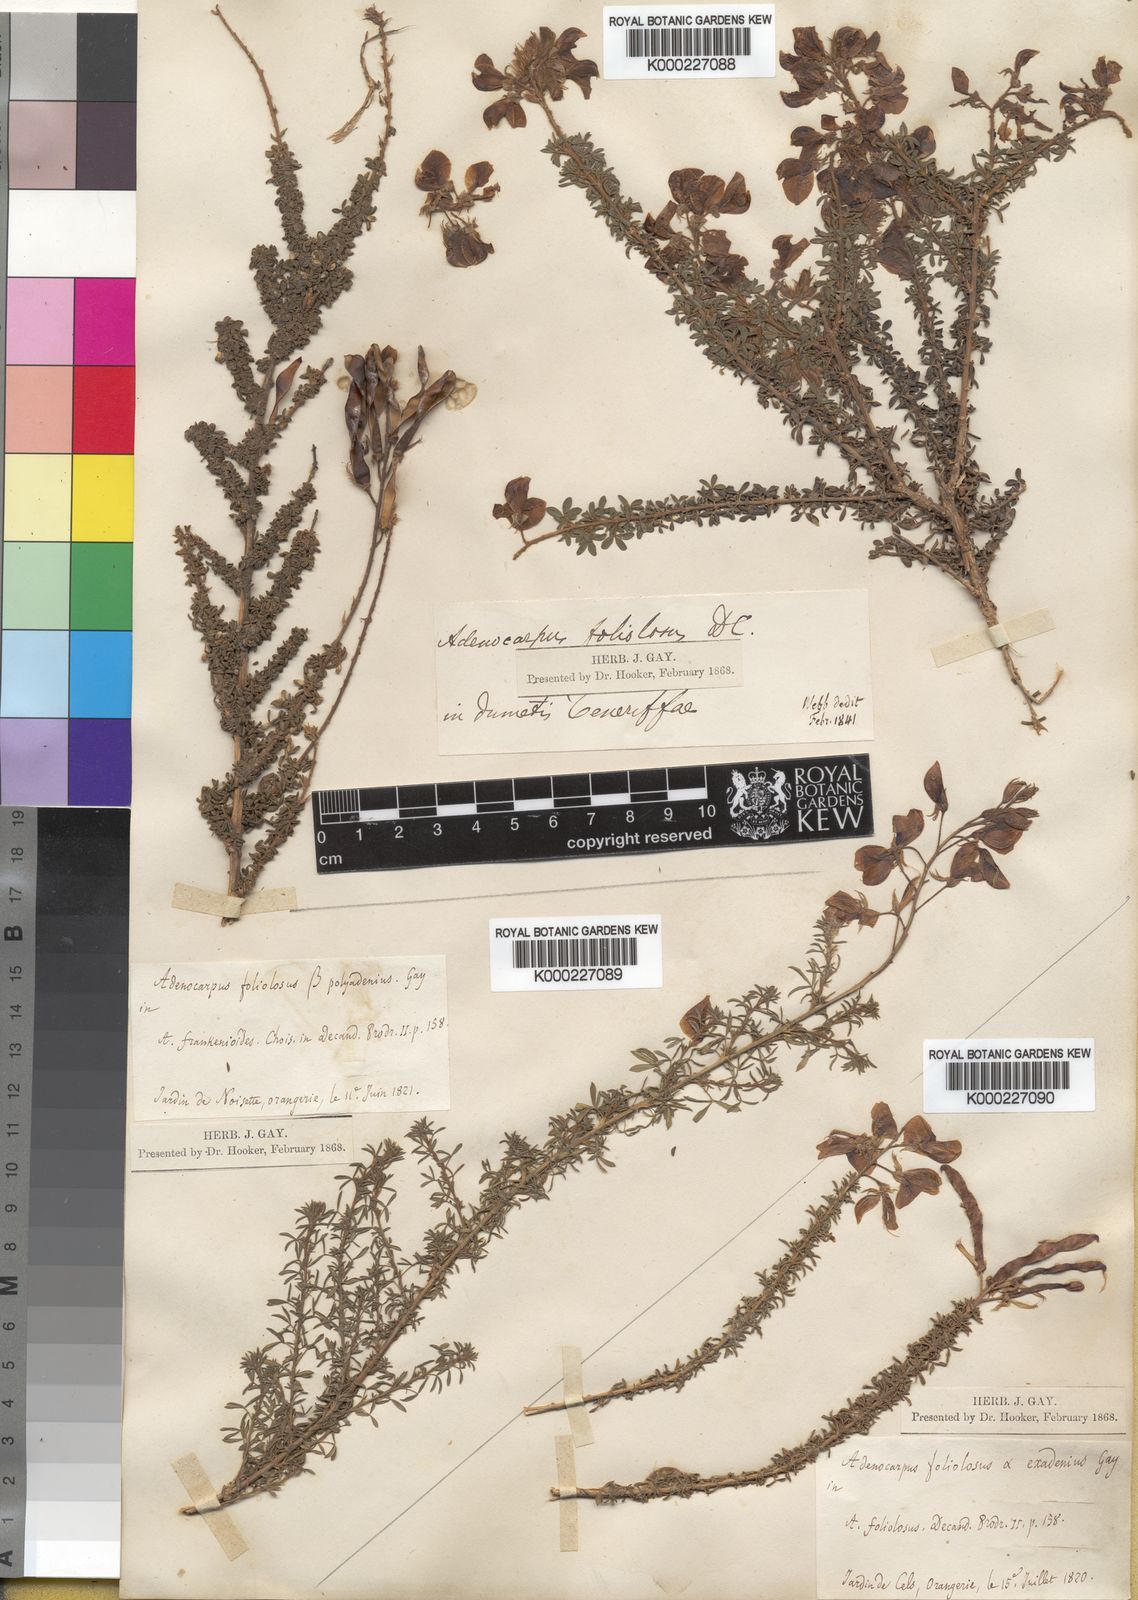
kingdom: Plantae
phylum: Tracheophyta
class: Magnoliopsida
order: Fabales
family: Fabaceae
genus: Adenocarpus
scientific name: Adenocarpus foliolosus
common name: Canary island flatpod
